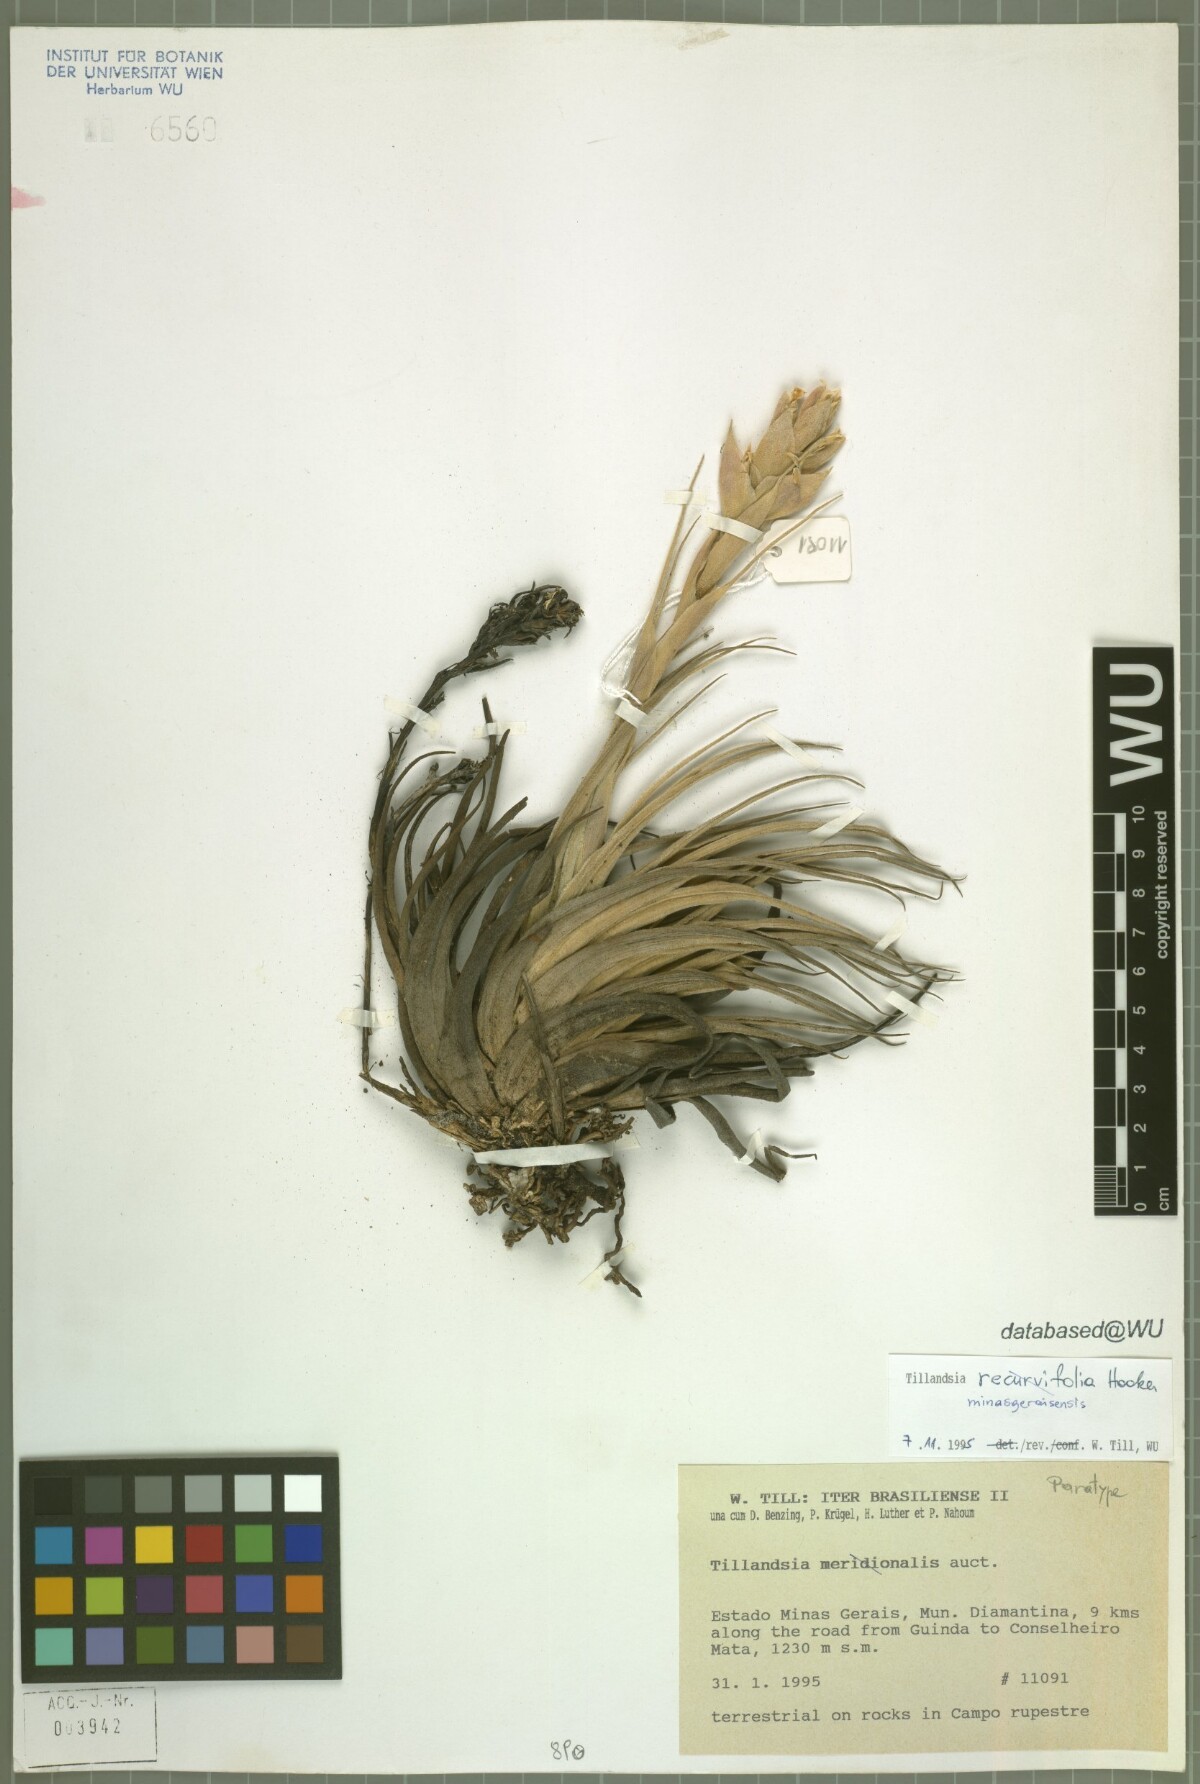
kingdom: Plantae
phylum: Tracheophyta
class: Liliopsida
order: Poales
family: Bromeliaceae
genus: Tillandsia
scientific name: Tillandsia minasgeraisensis
